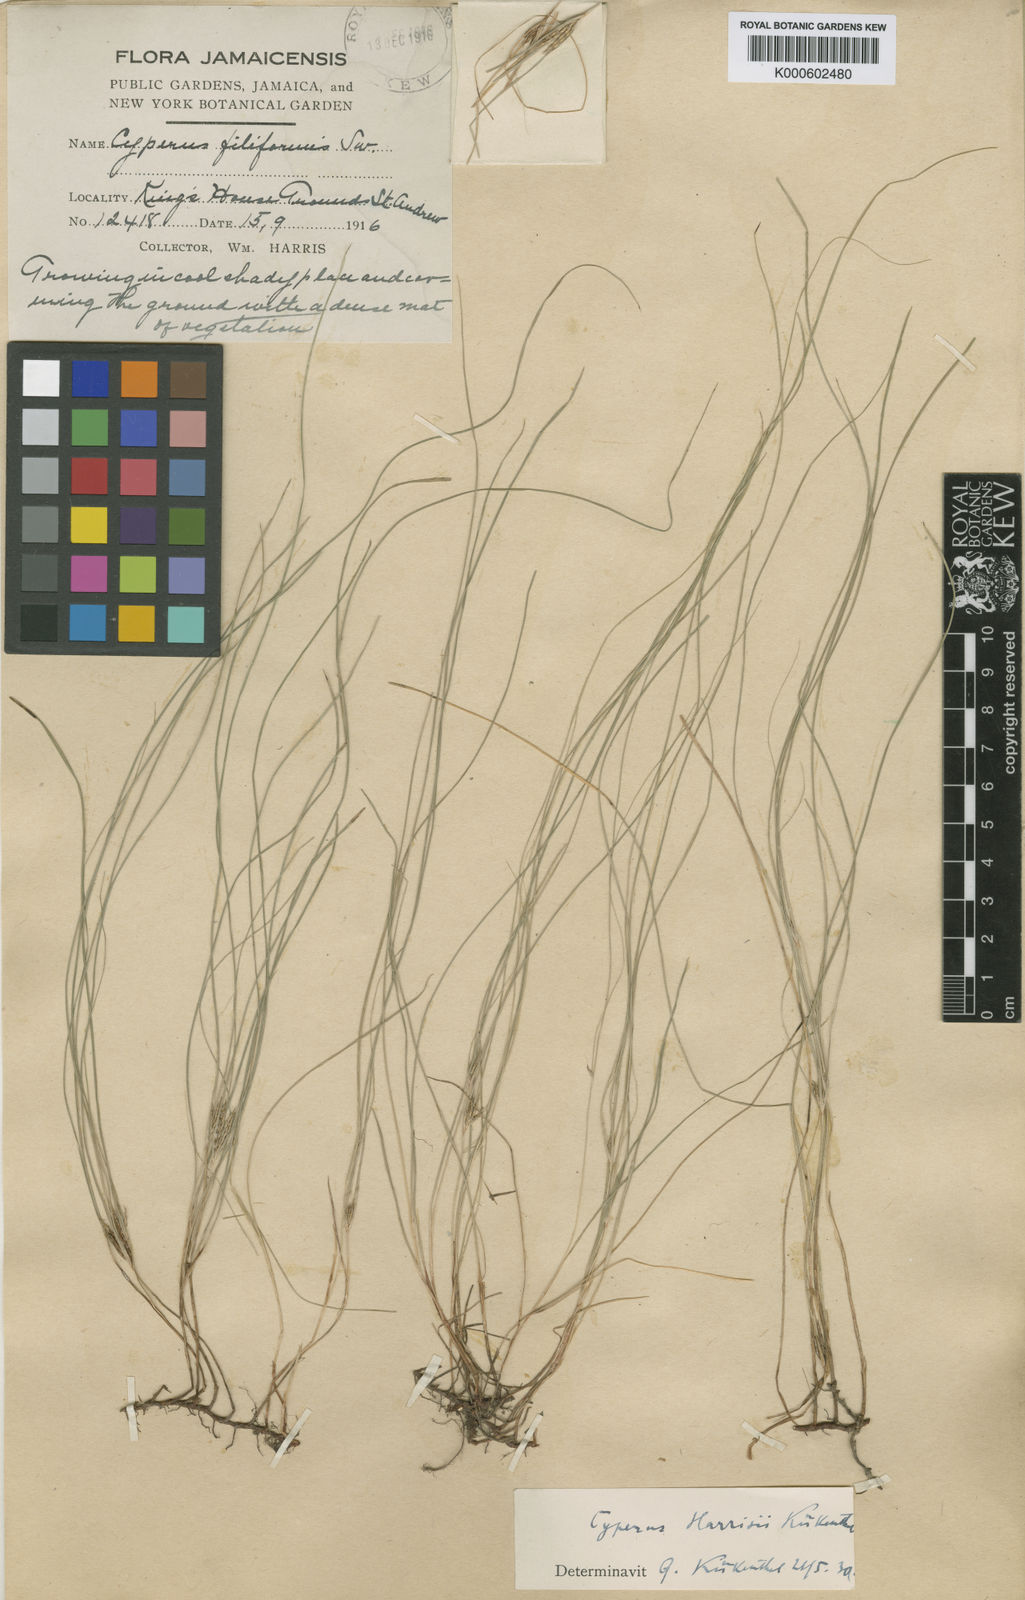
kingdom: Plantae
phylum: Tracheophyta
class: Liliopsida
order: Poales
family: Cyperaceae
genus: Cyperus
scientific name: Cyperus
